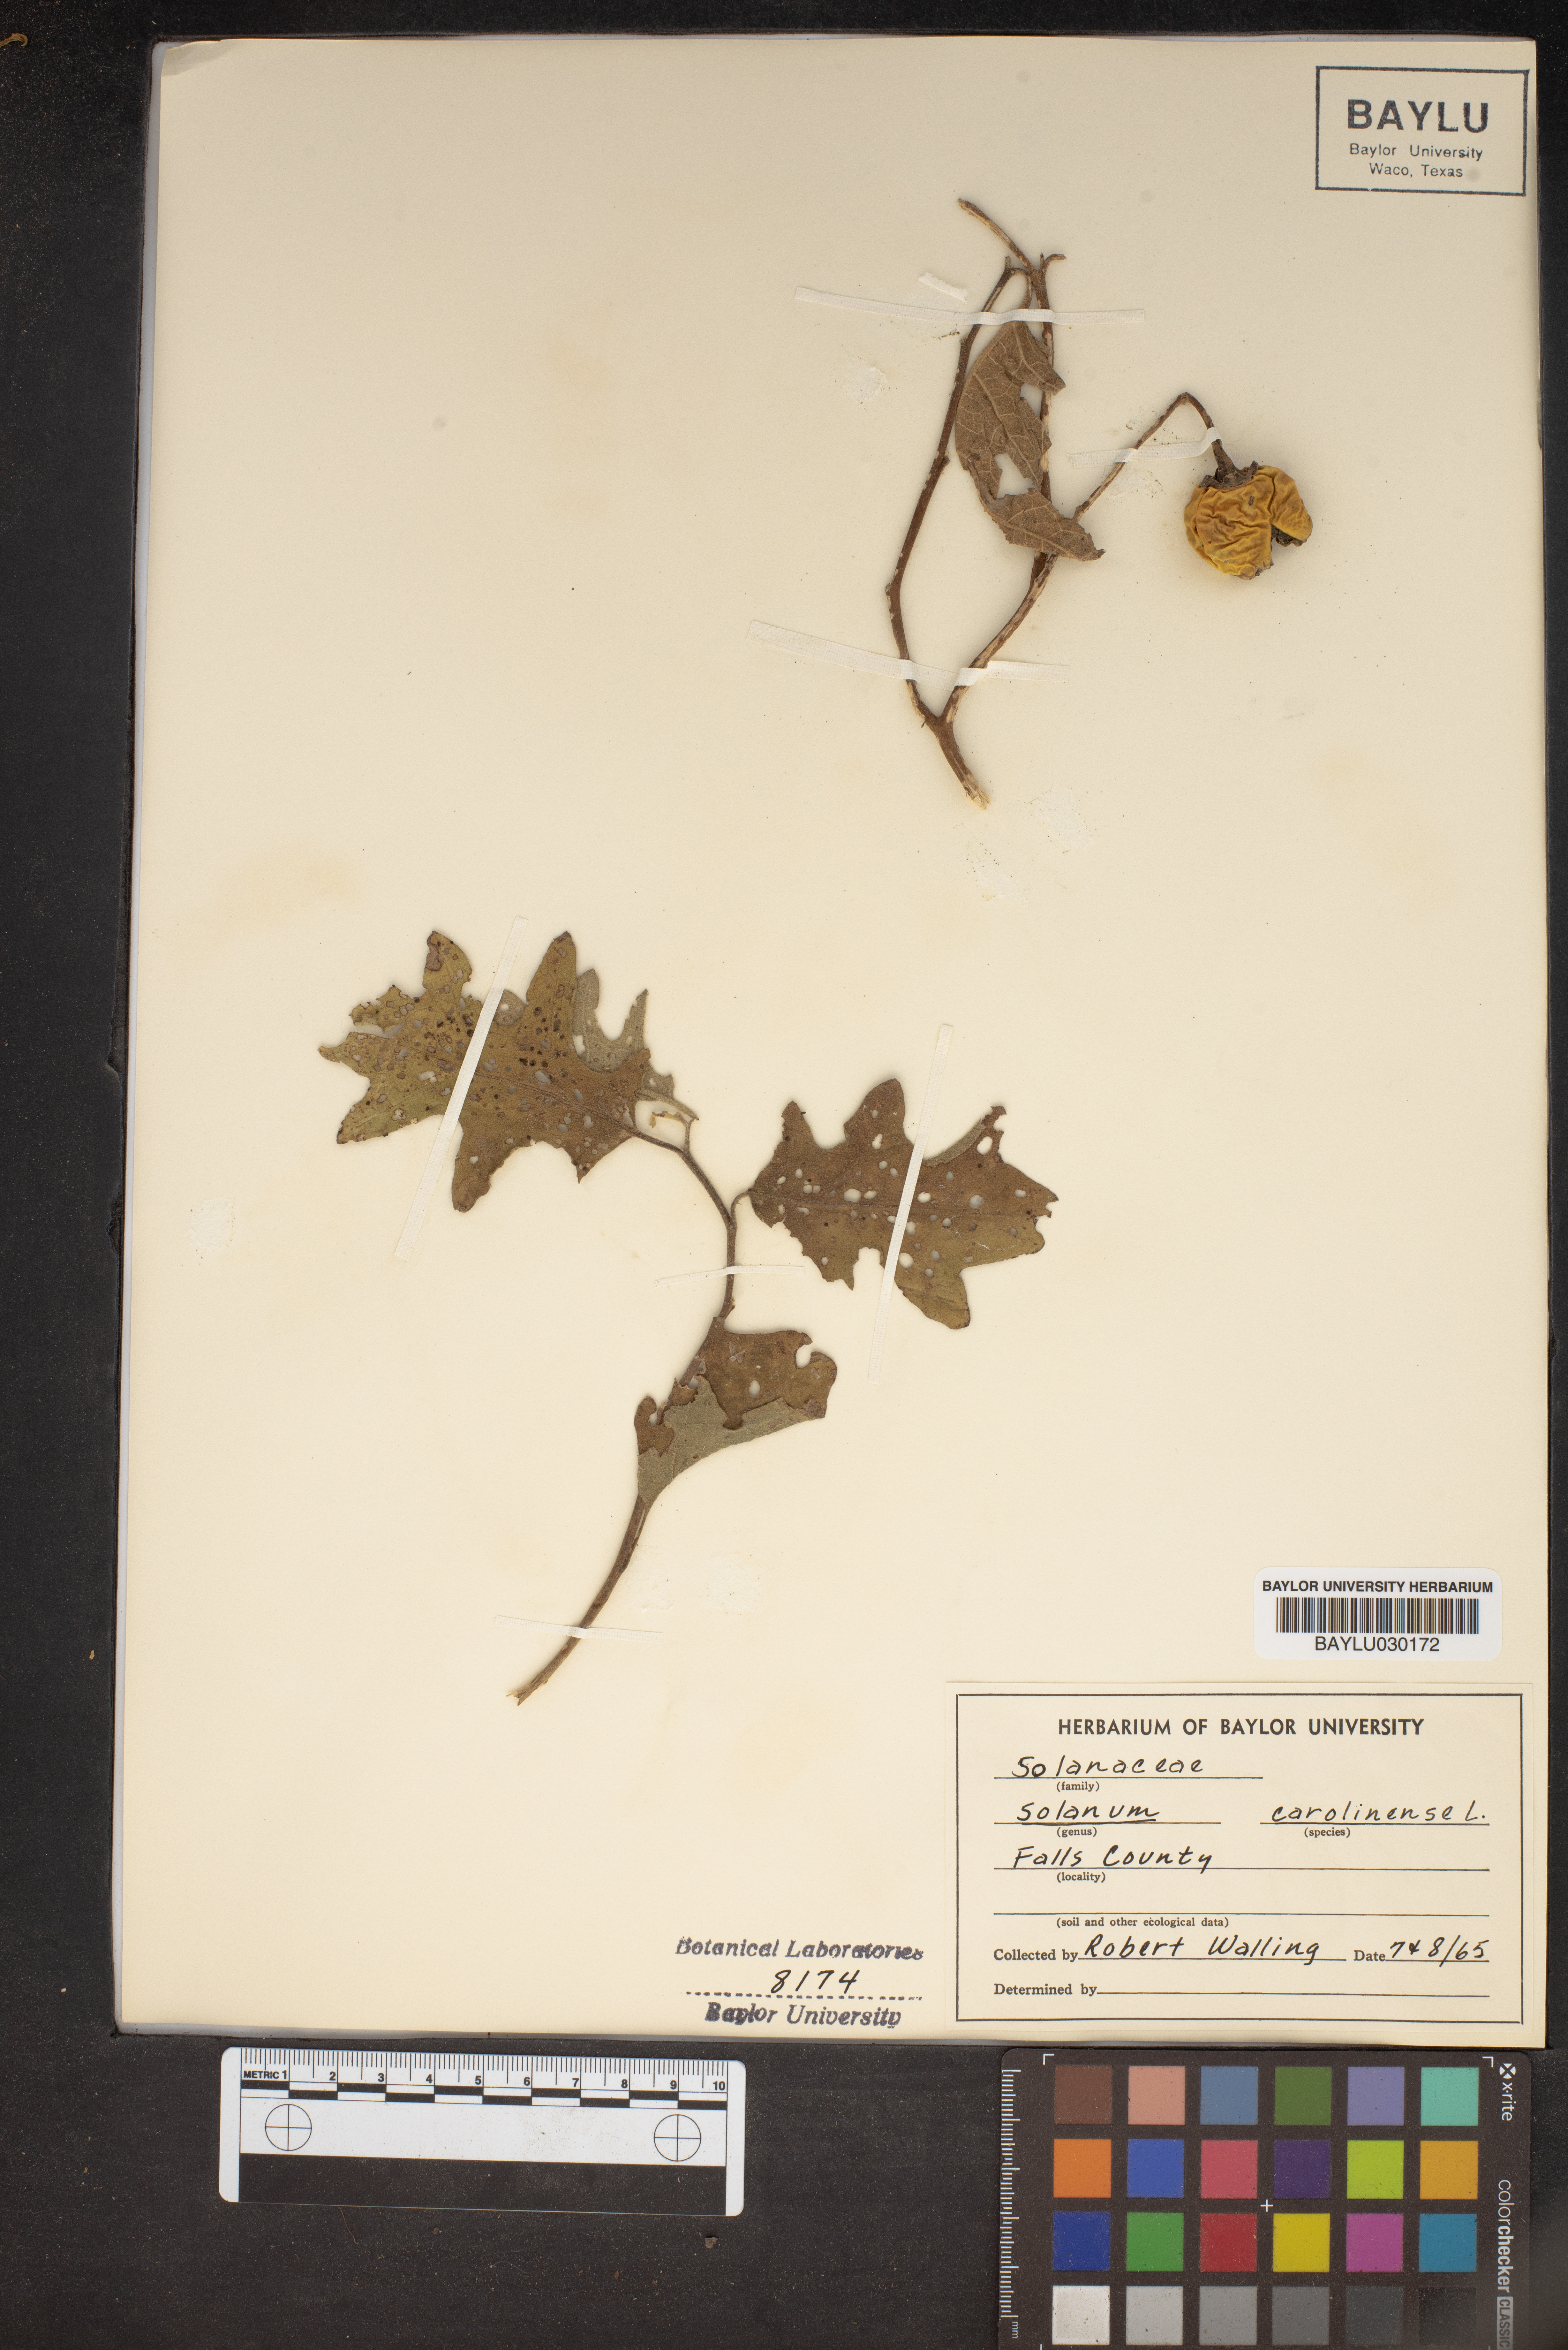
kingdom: Plantae
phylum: Tracheophyta
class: Magnoliopsida
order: Solanales
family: Solanaceae
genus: Solanum
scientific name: Solanum carolinense
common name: Horse-nettle
